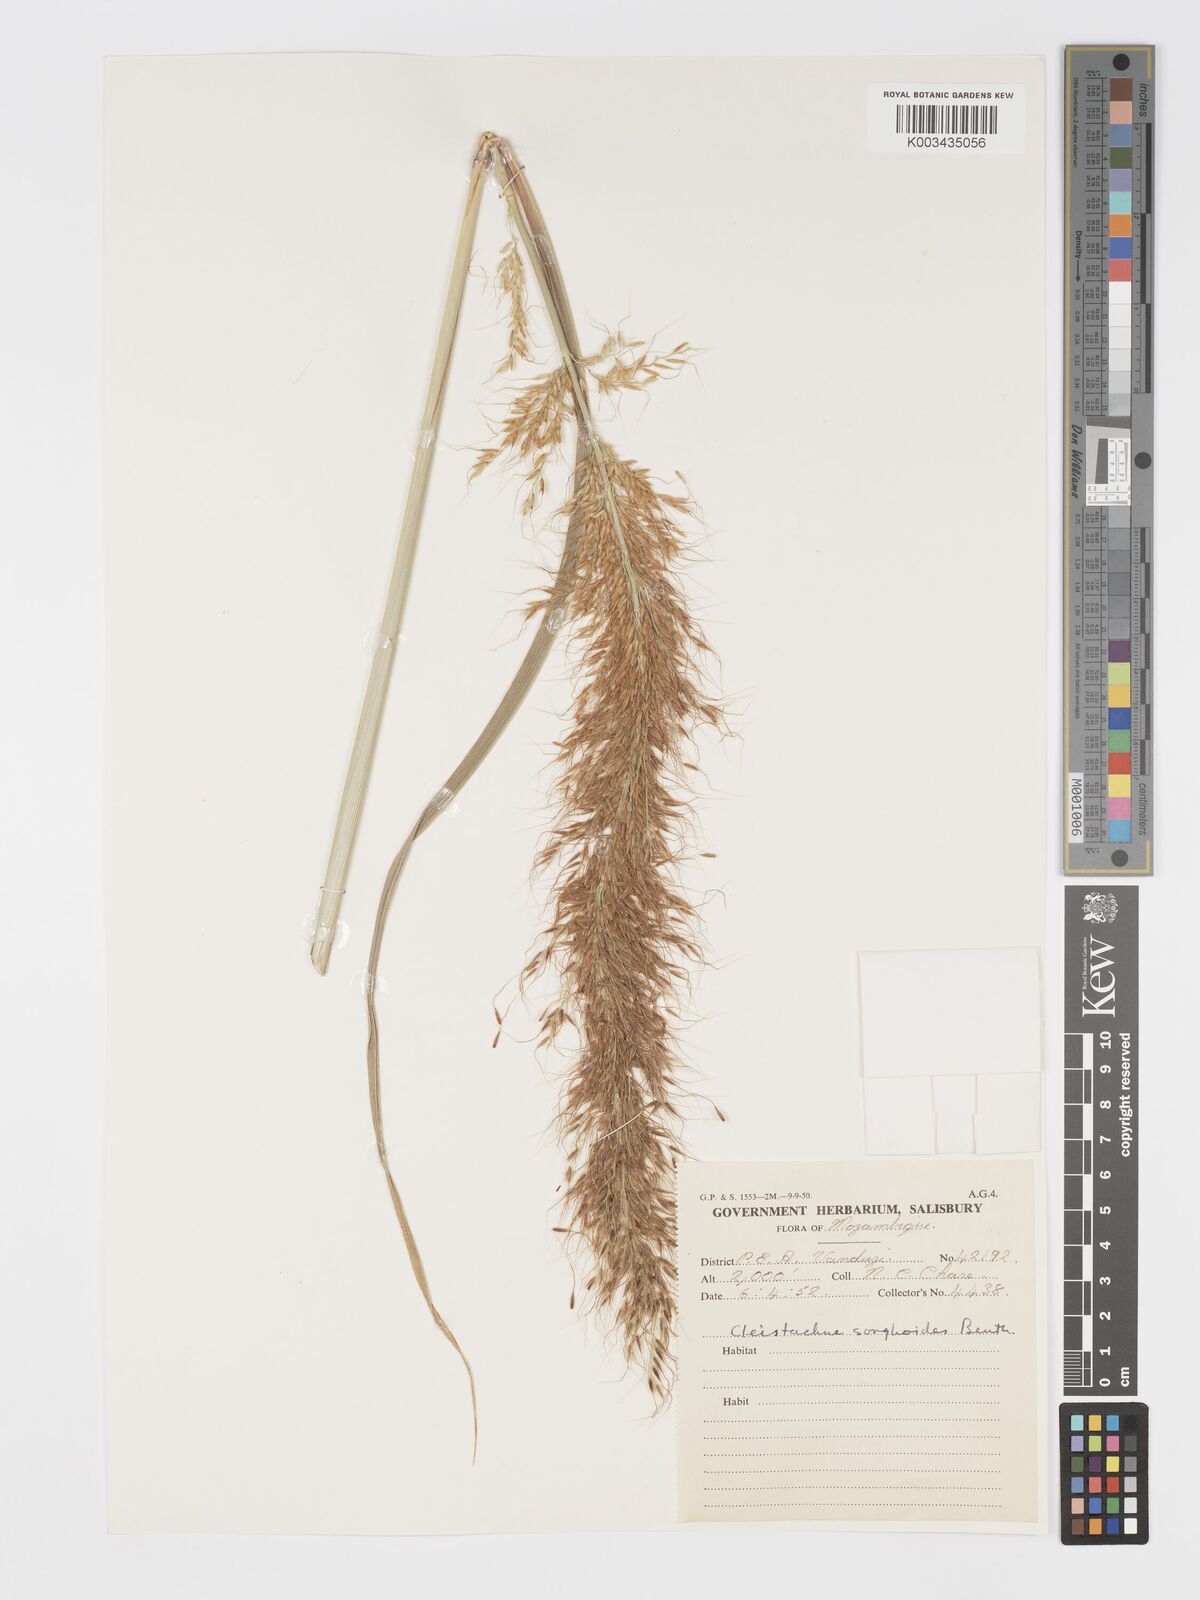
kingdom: Plantae
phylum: Tracheophyta
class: Liliopsida
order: Poales
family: Poaceae
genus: Cleistachne
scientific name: Cleistachne sorghoides
